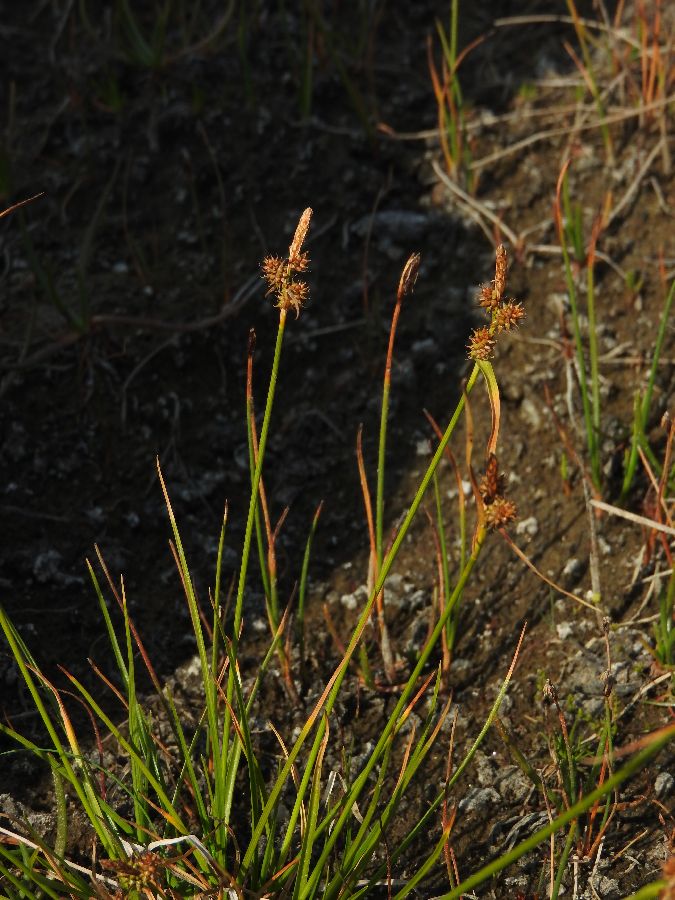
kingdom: Plantae
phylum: Tracheophyta
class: Liliopsida
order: Poales
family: Cyperaceae
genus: Carex
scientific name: Carex oederi
